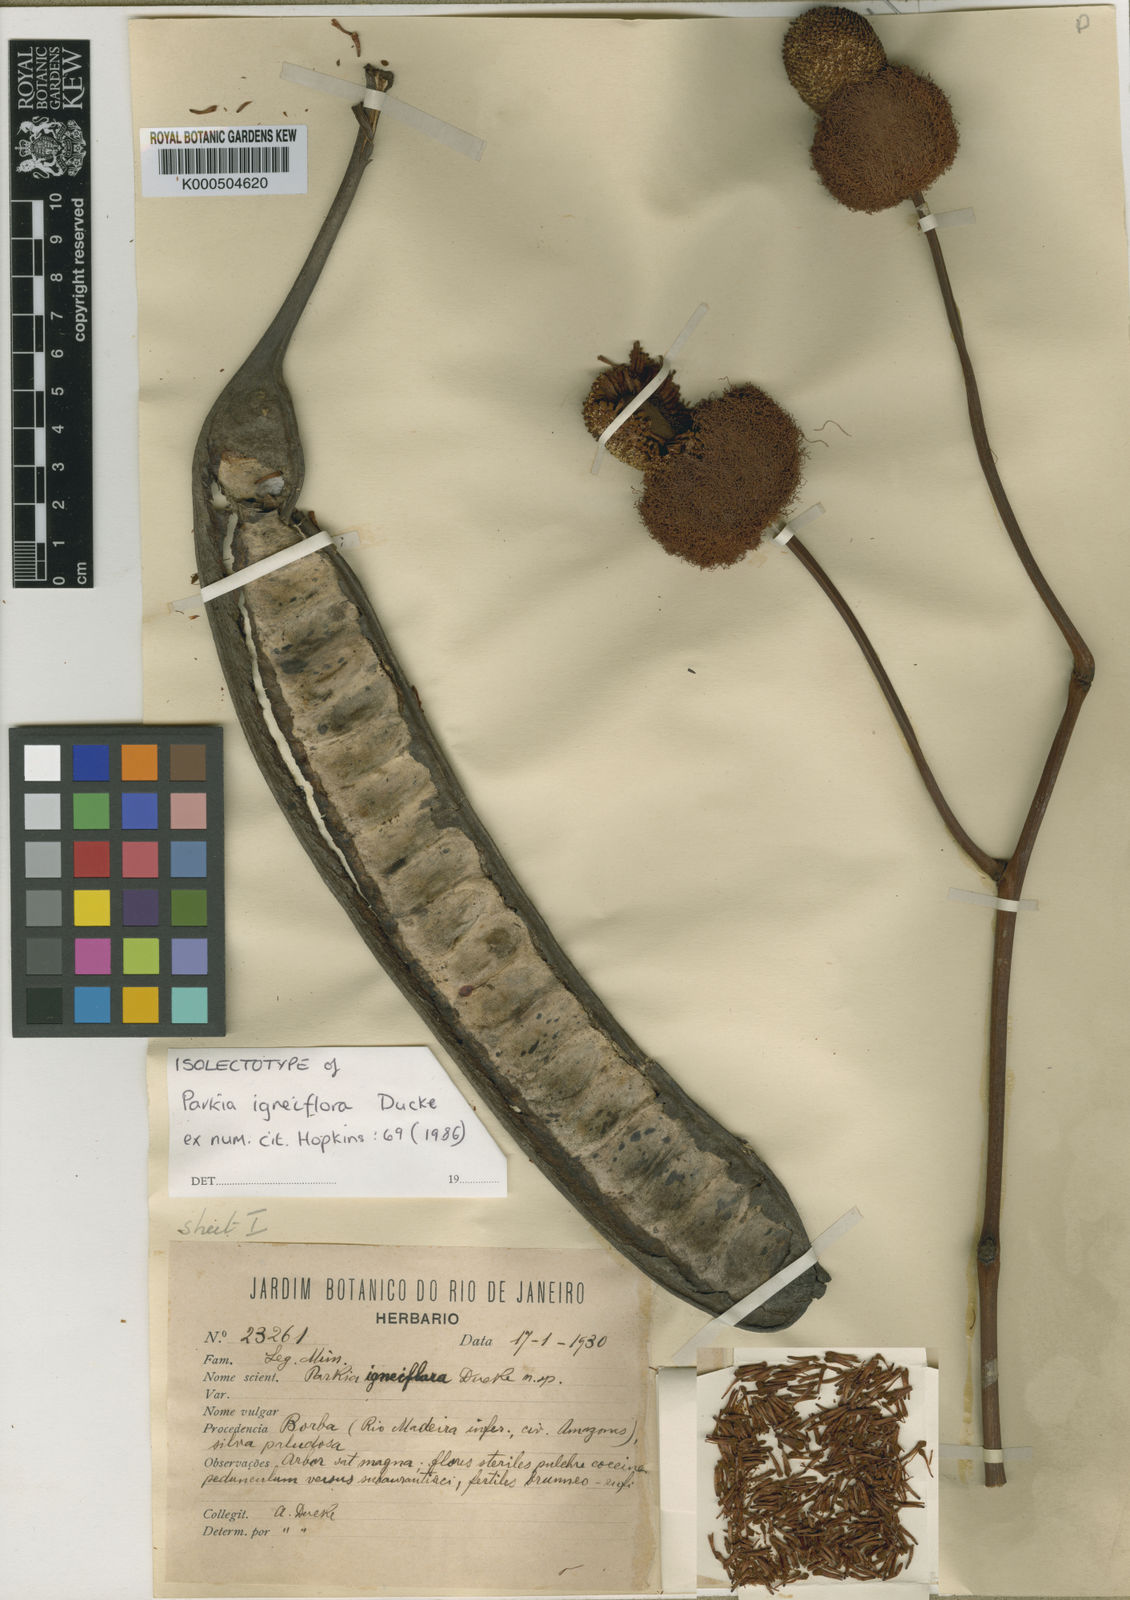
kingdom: Plantae
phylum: Tracheophyta
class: Magnoliopsida
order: Fabales
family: Fabaceae
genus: Parkia
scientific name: Parkia
